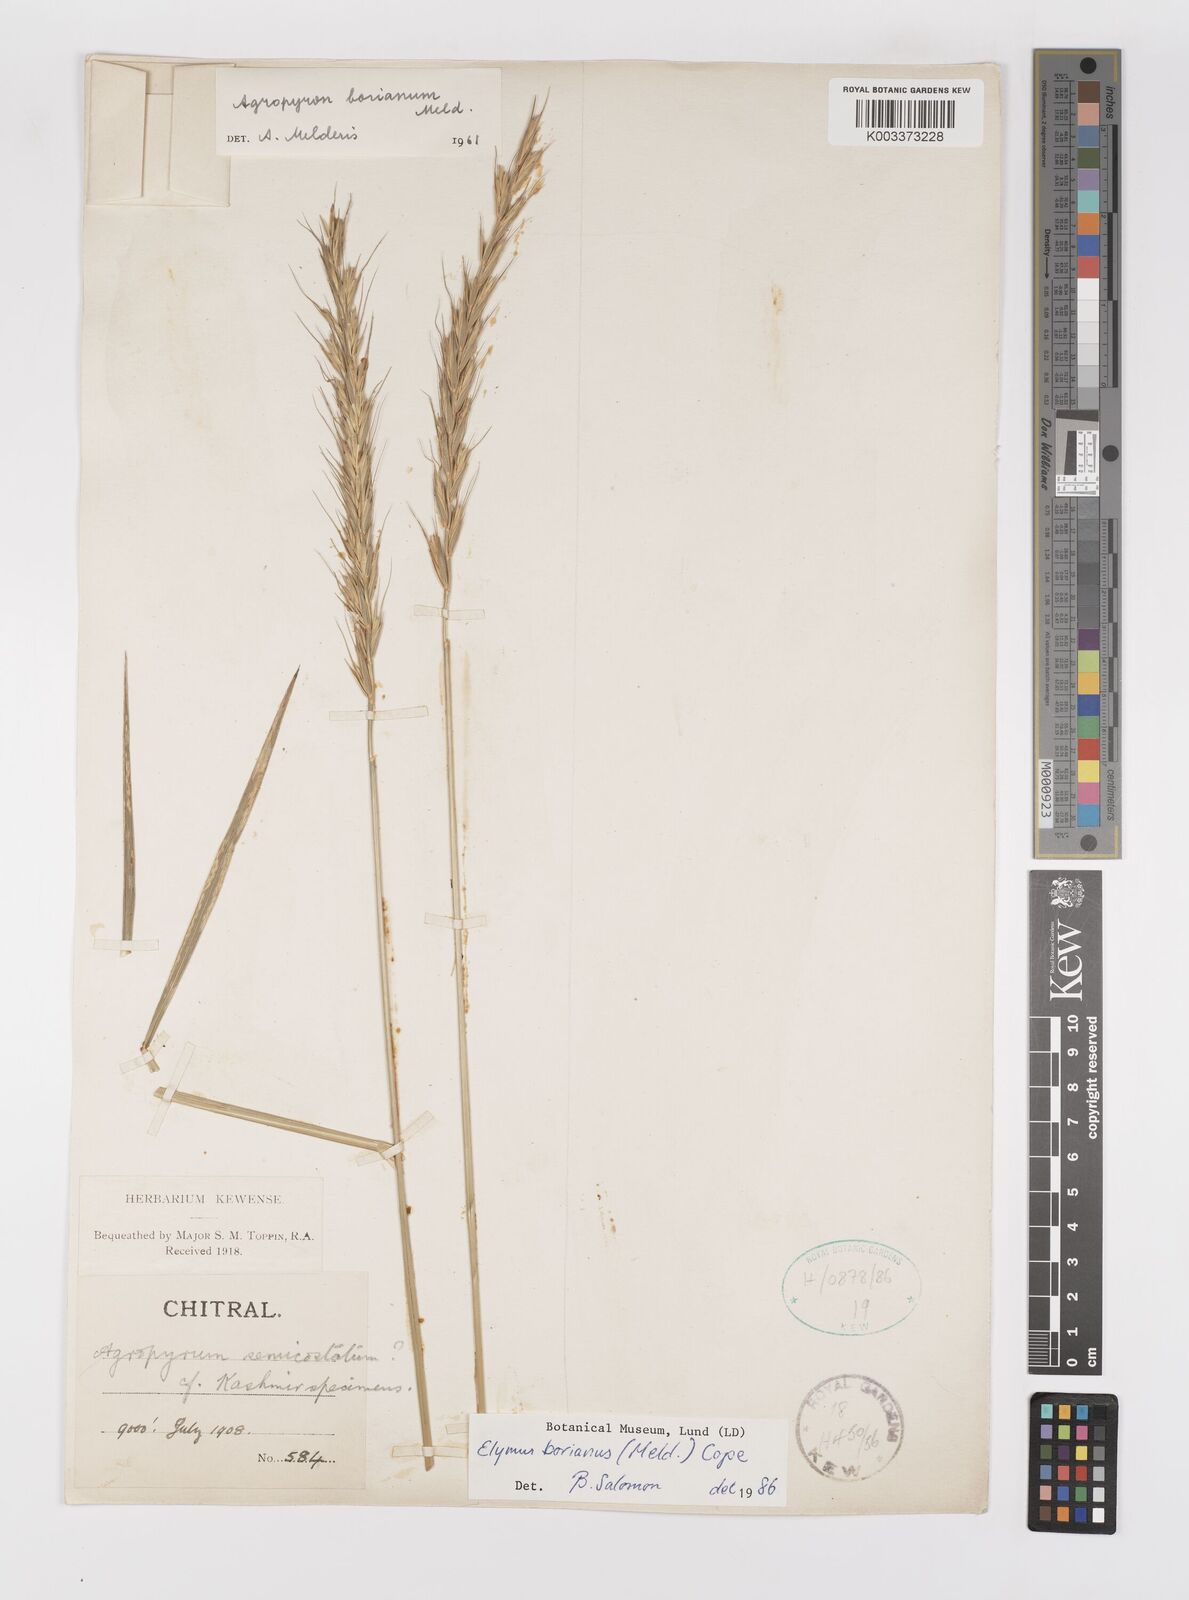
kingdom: Plantae
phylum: Tracheophyta
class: Liliopsida
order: Poales
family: Poaceae
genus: Elymus
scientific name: Elymus borianus
